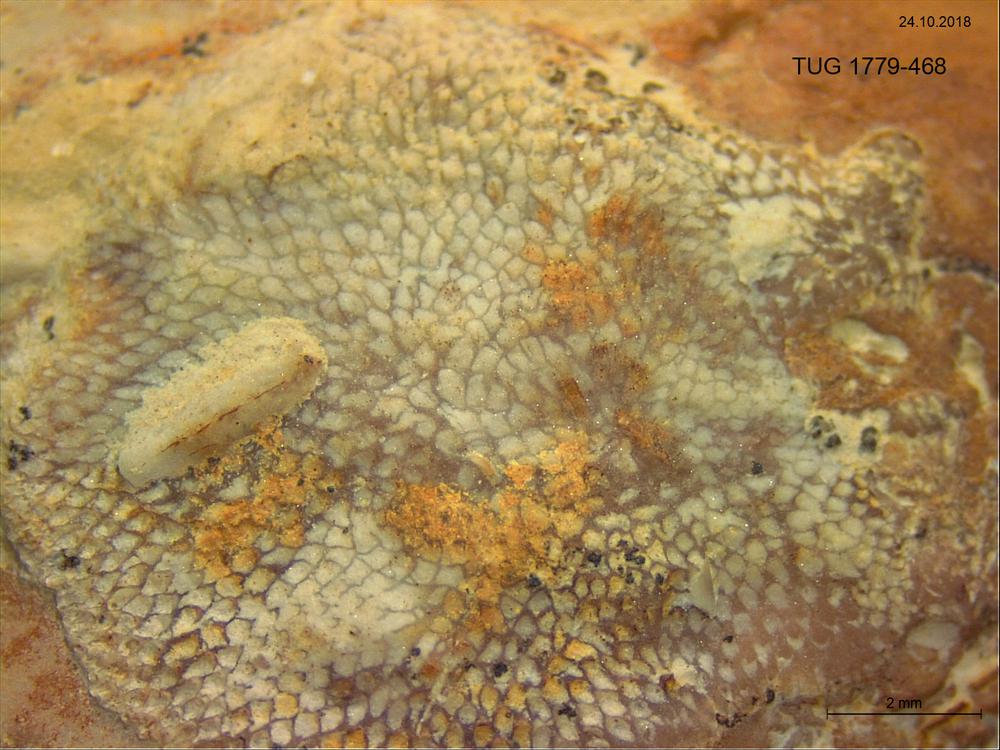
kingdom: Animalia
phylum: Bryozoa
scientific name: Bryozoa
